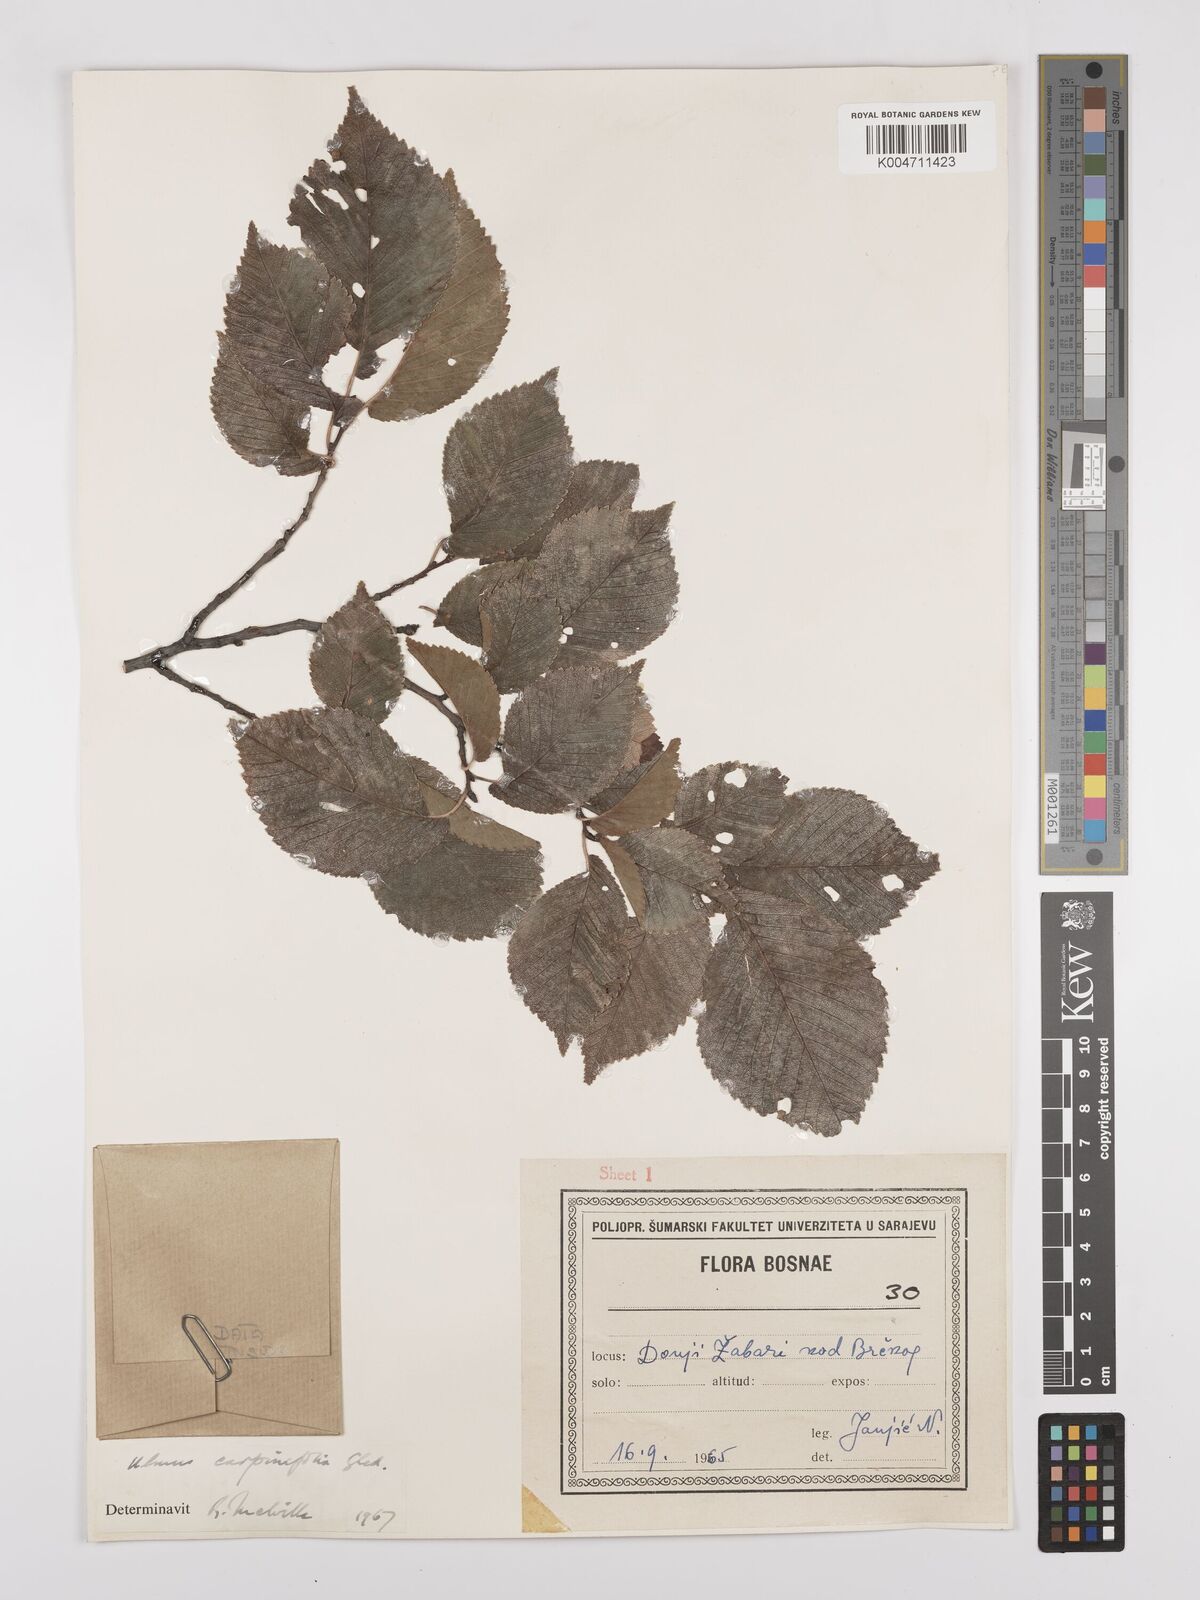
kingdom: Plantae
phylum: Tracheophyta
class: Magnoliopsida
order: Rosales
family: Ulmaceae
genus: Ulmus
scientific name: Ulmus minor
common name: Small-leaved elm
